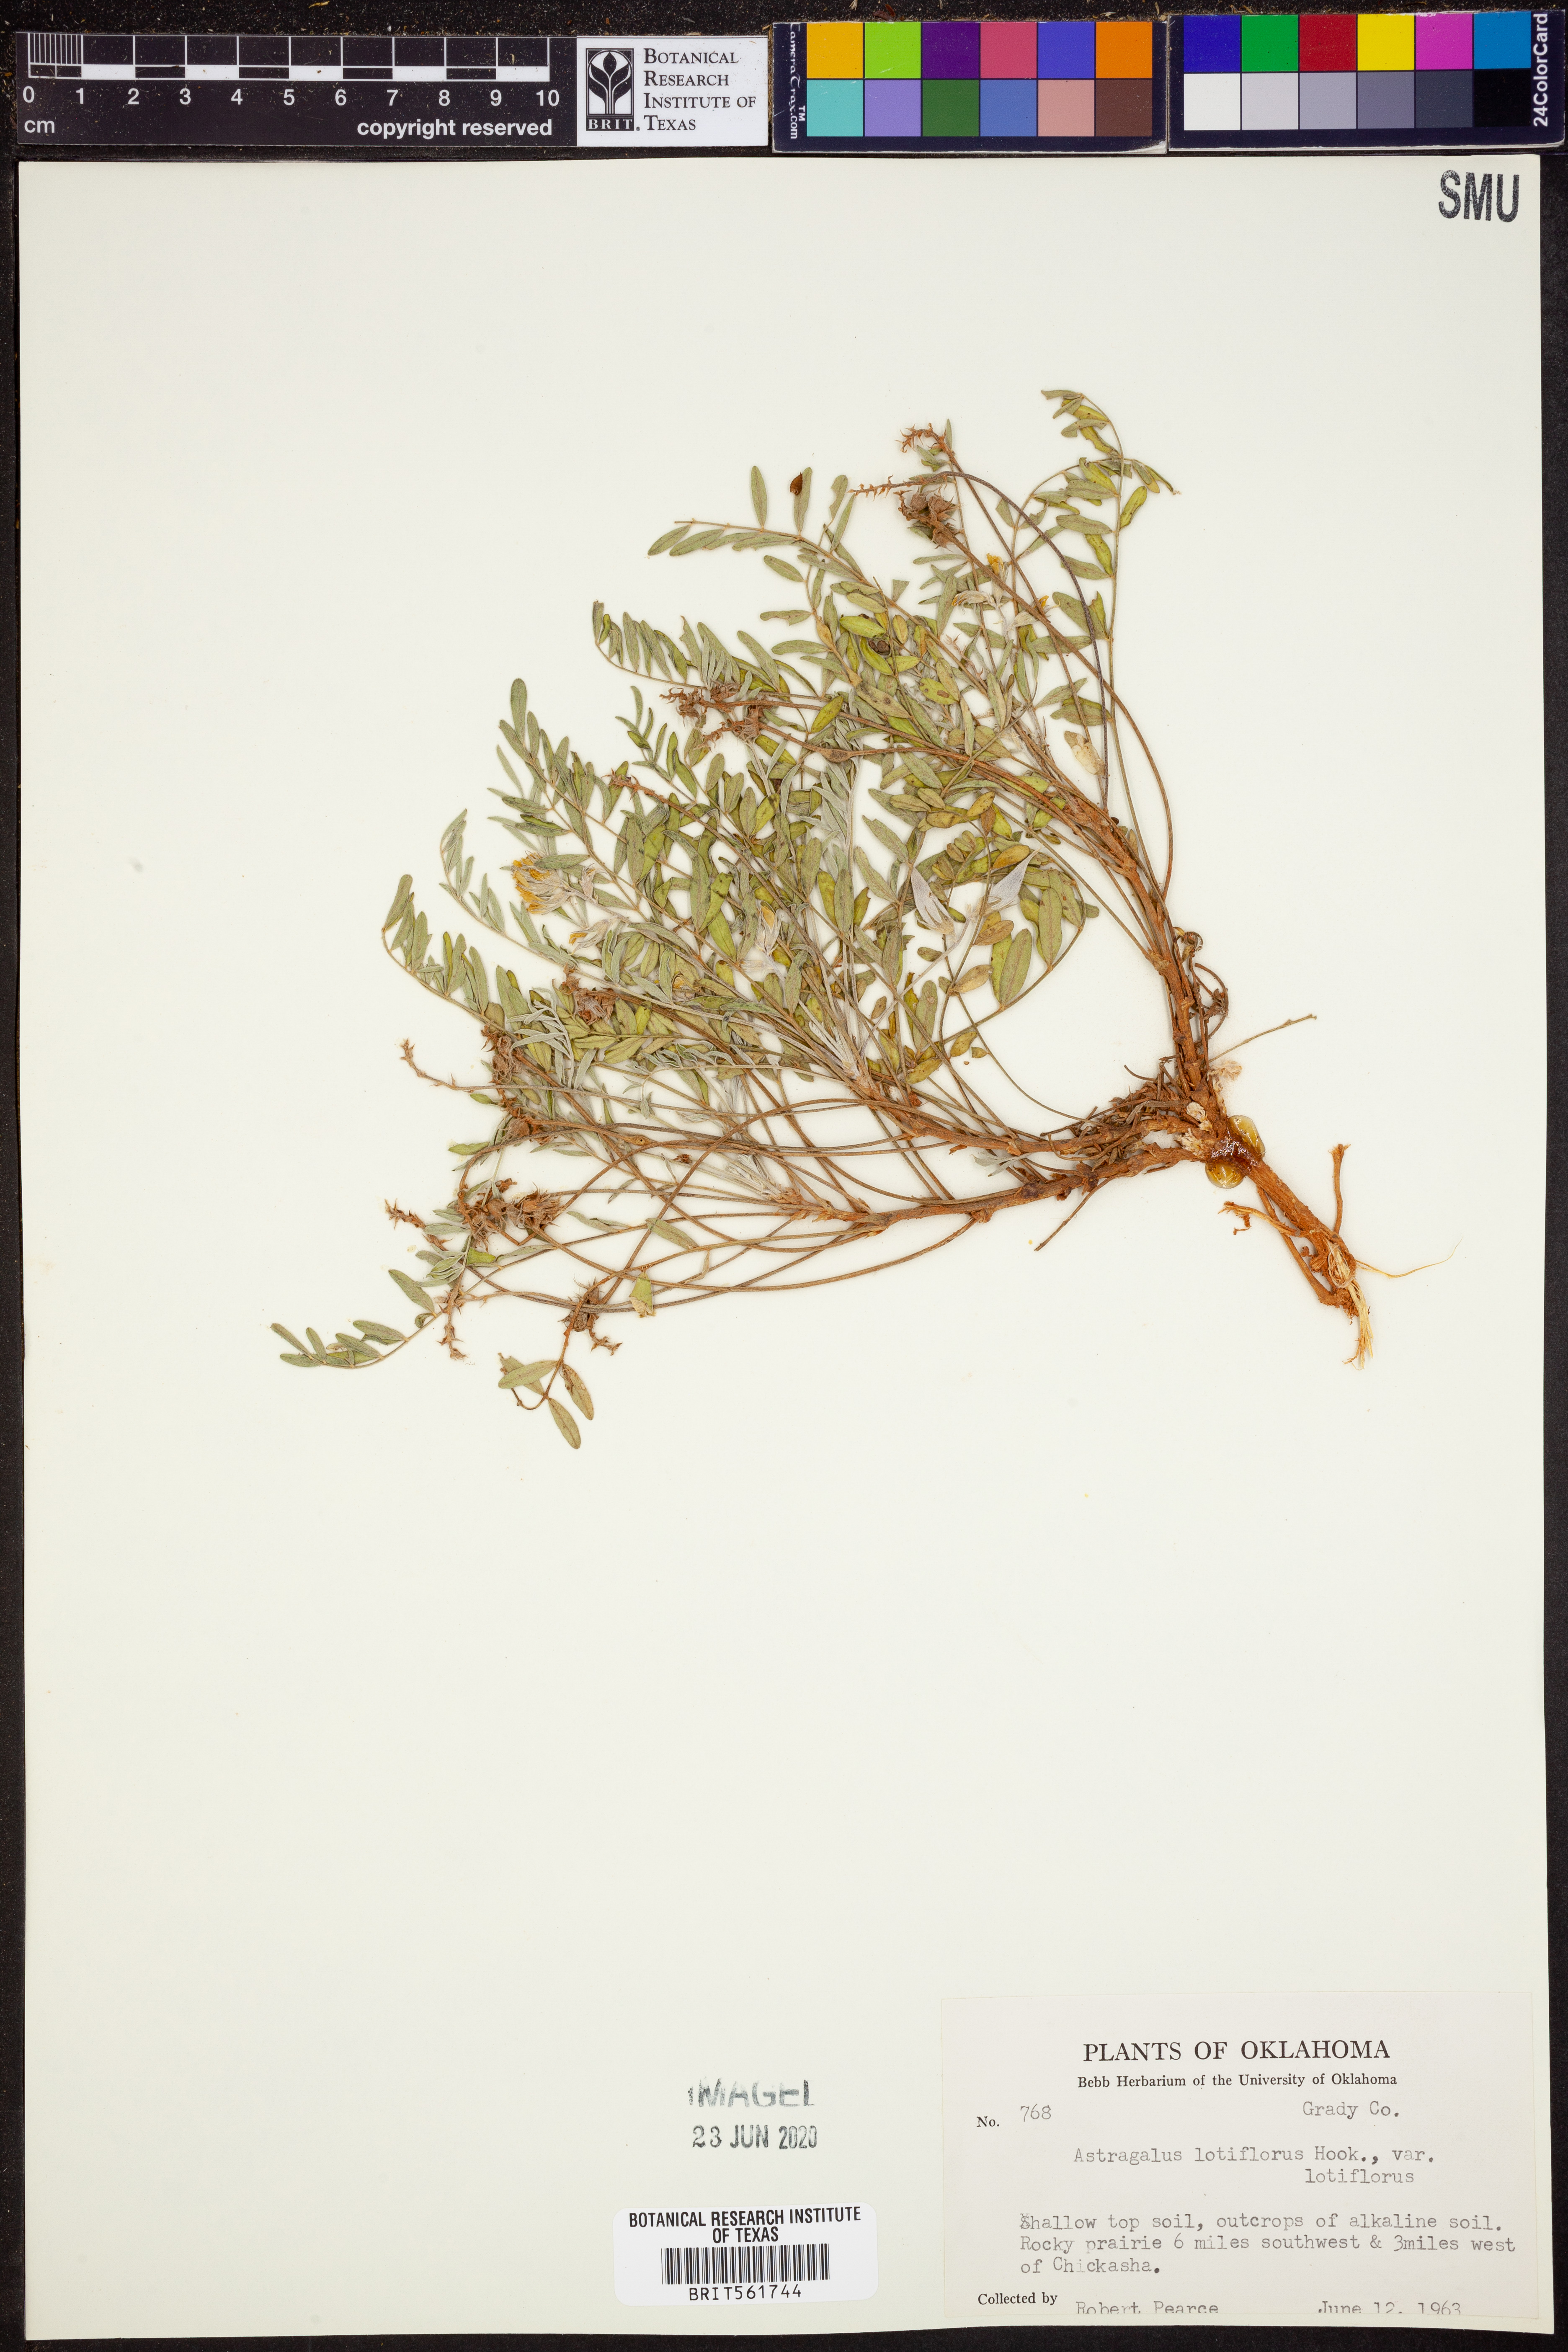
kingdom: Plantae
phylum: Tracheophyta
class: Magnoliopsida
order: Fabales
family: Fabaceae
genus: Astragalus
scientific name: Astragalus lotiflorus
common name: Lotus milk-vetch
